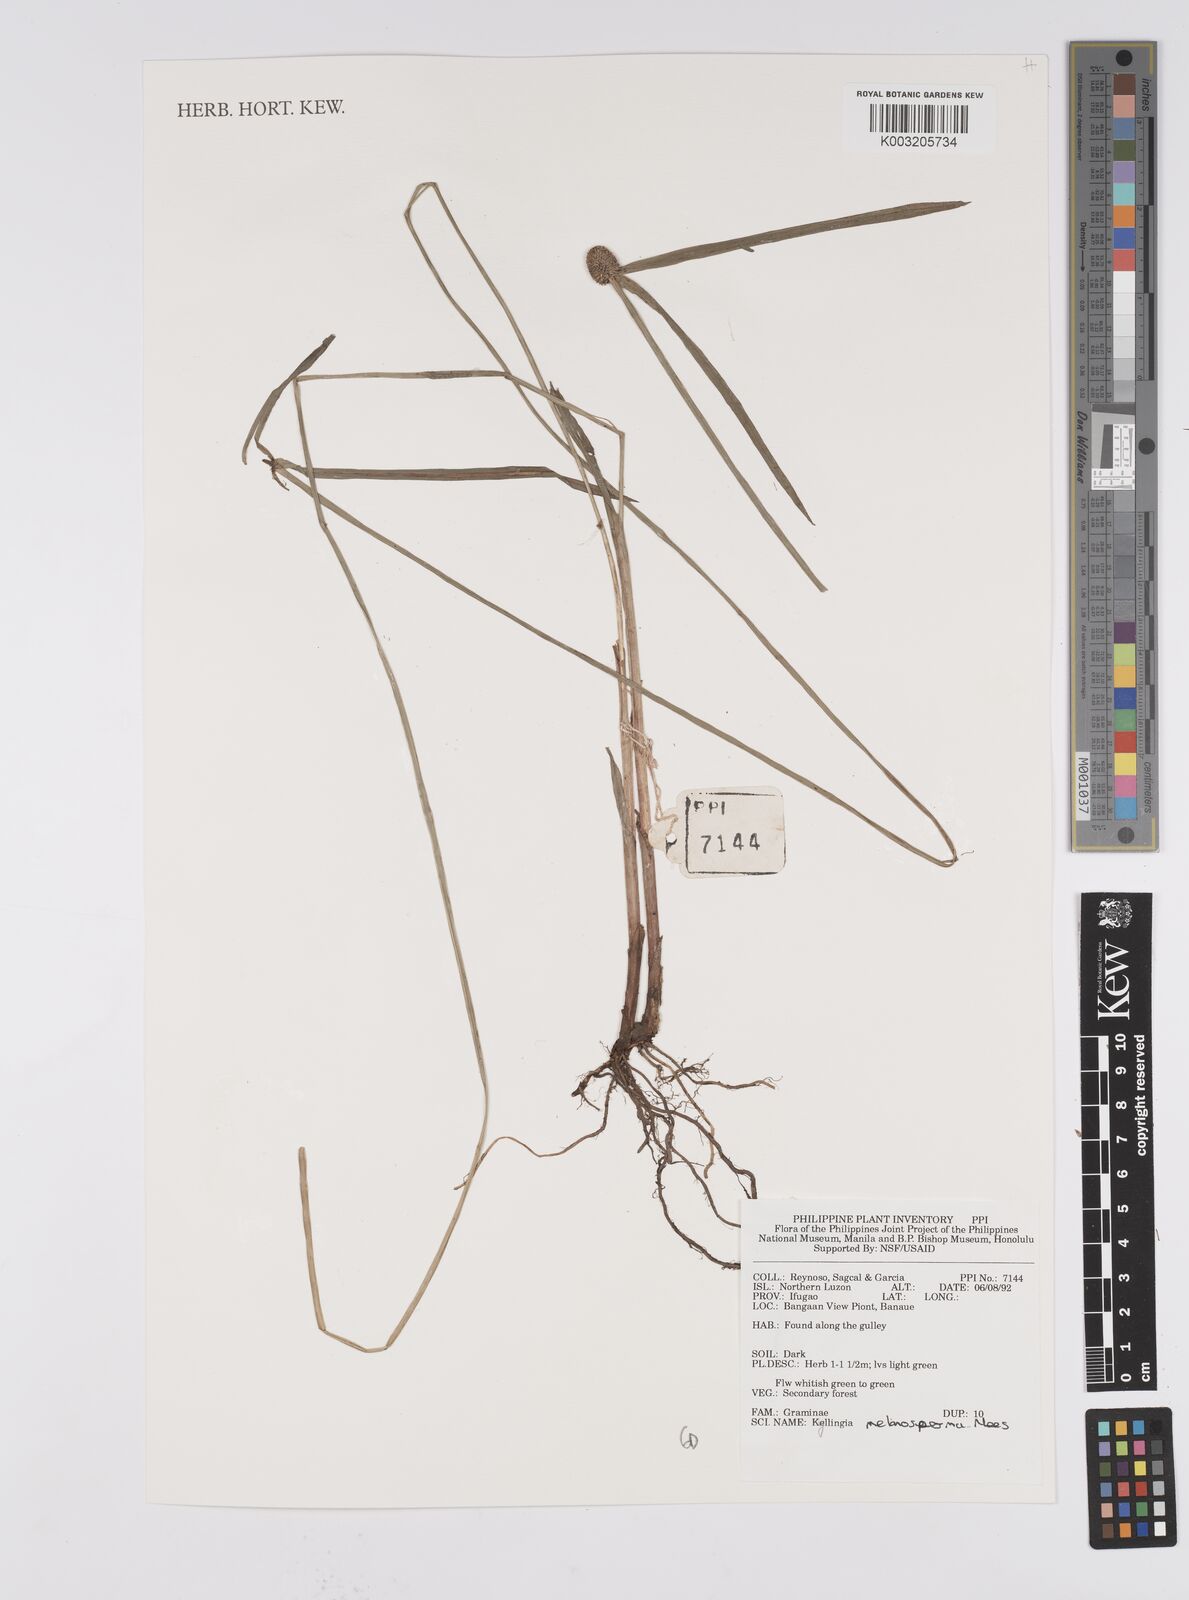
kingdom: Plantae
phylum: Tracheophyta
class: Liliopsida
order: Poales
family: Cyperaceae
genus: Cyperus
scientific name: Cyperus melanospermus
